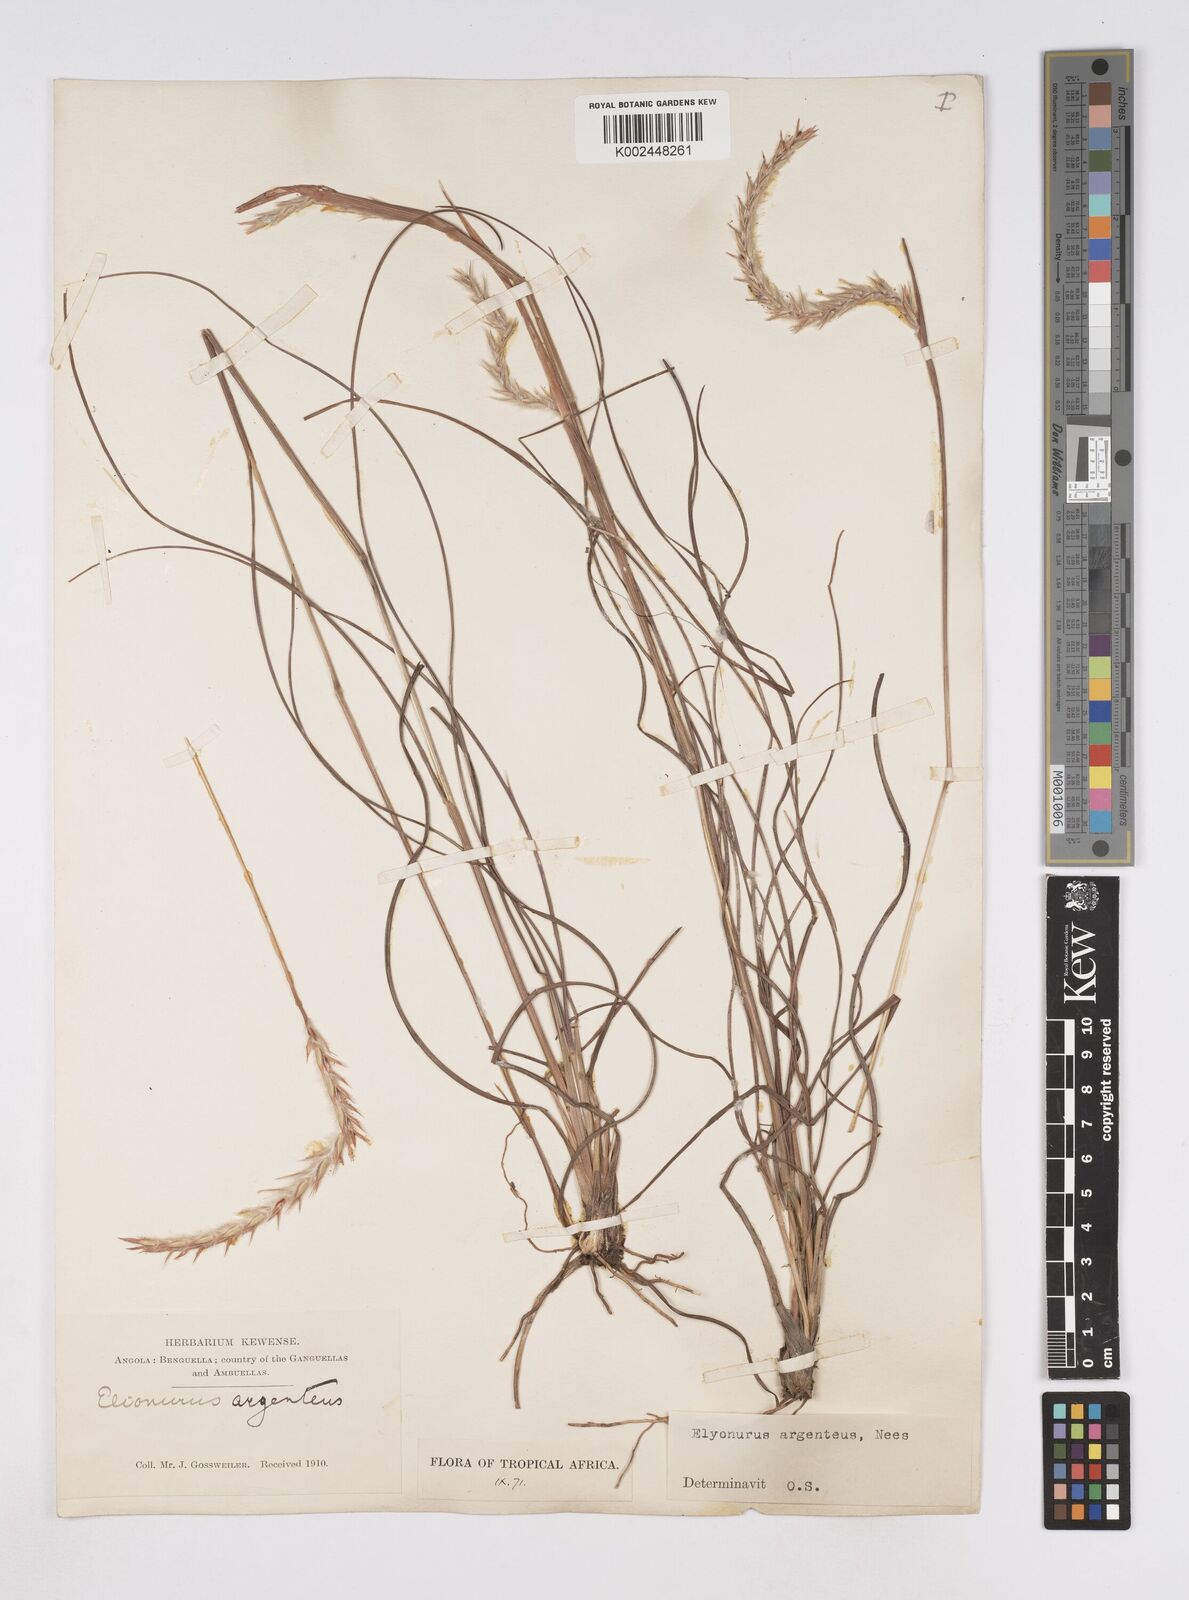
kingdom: Plantae
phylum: Tracheophyta
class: Liliopsida
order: Poales
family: Poaceae
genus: Elionurus
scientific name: Elionurus muticus
